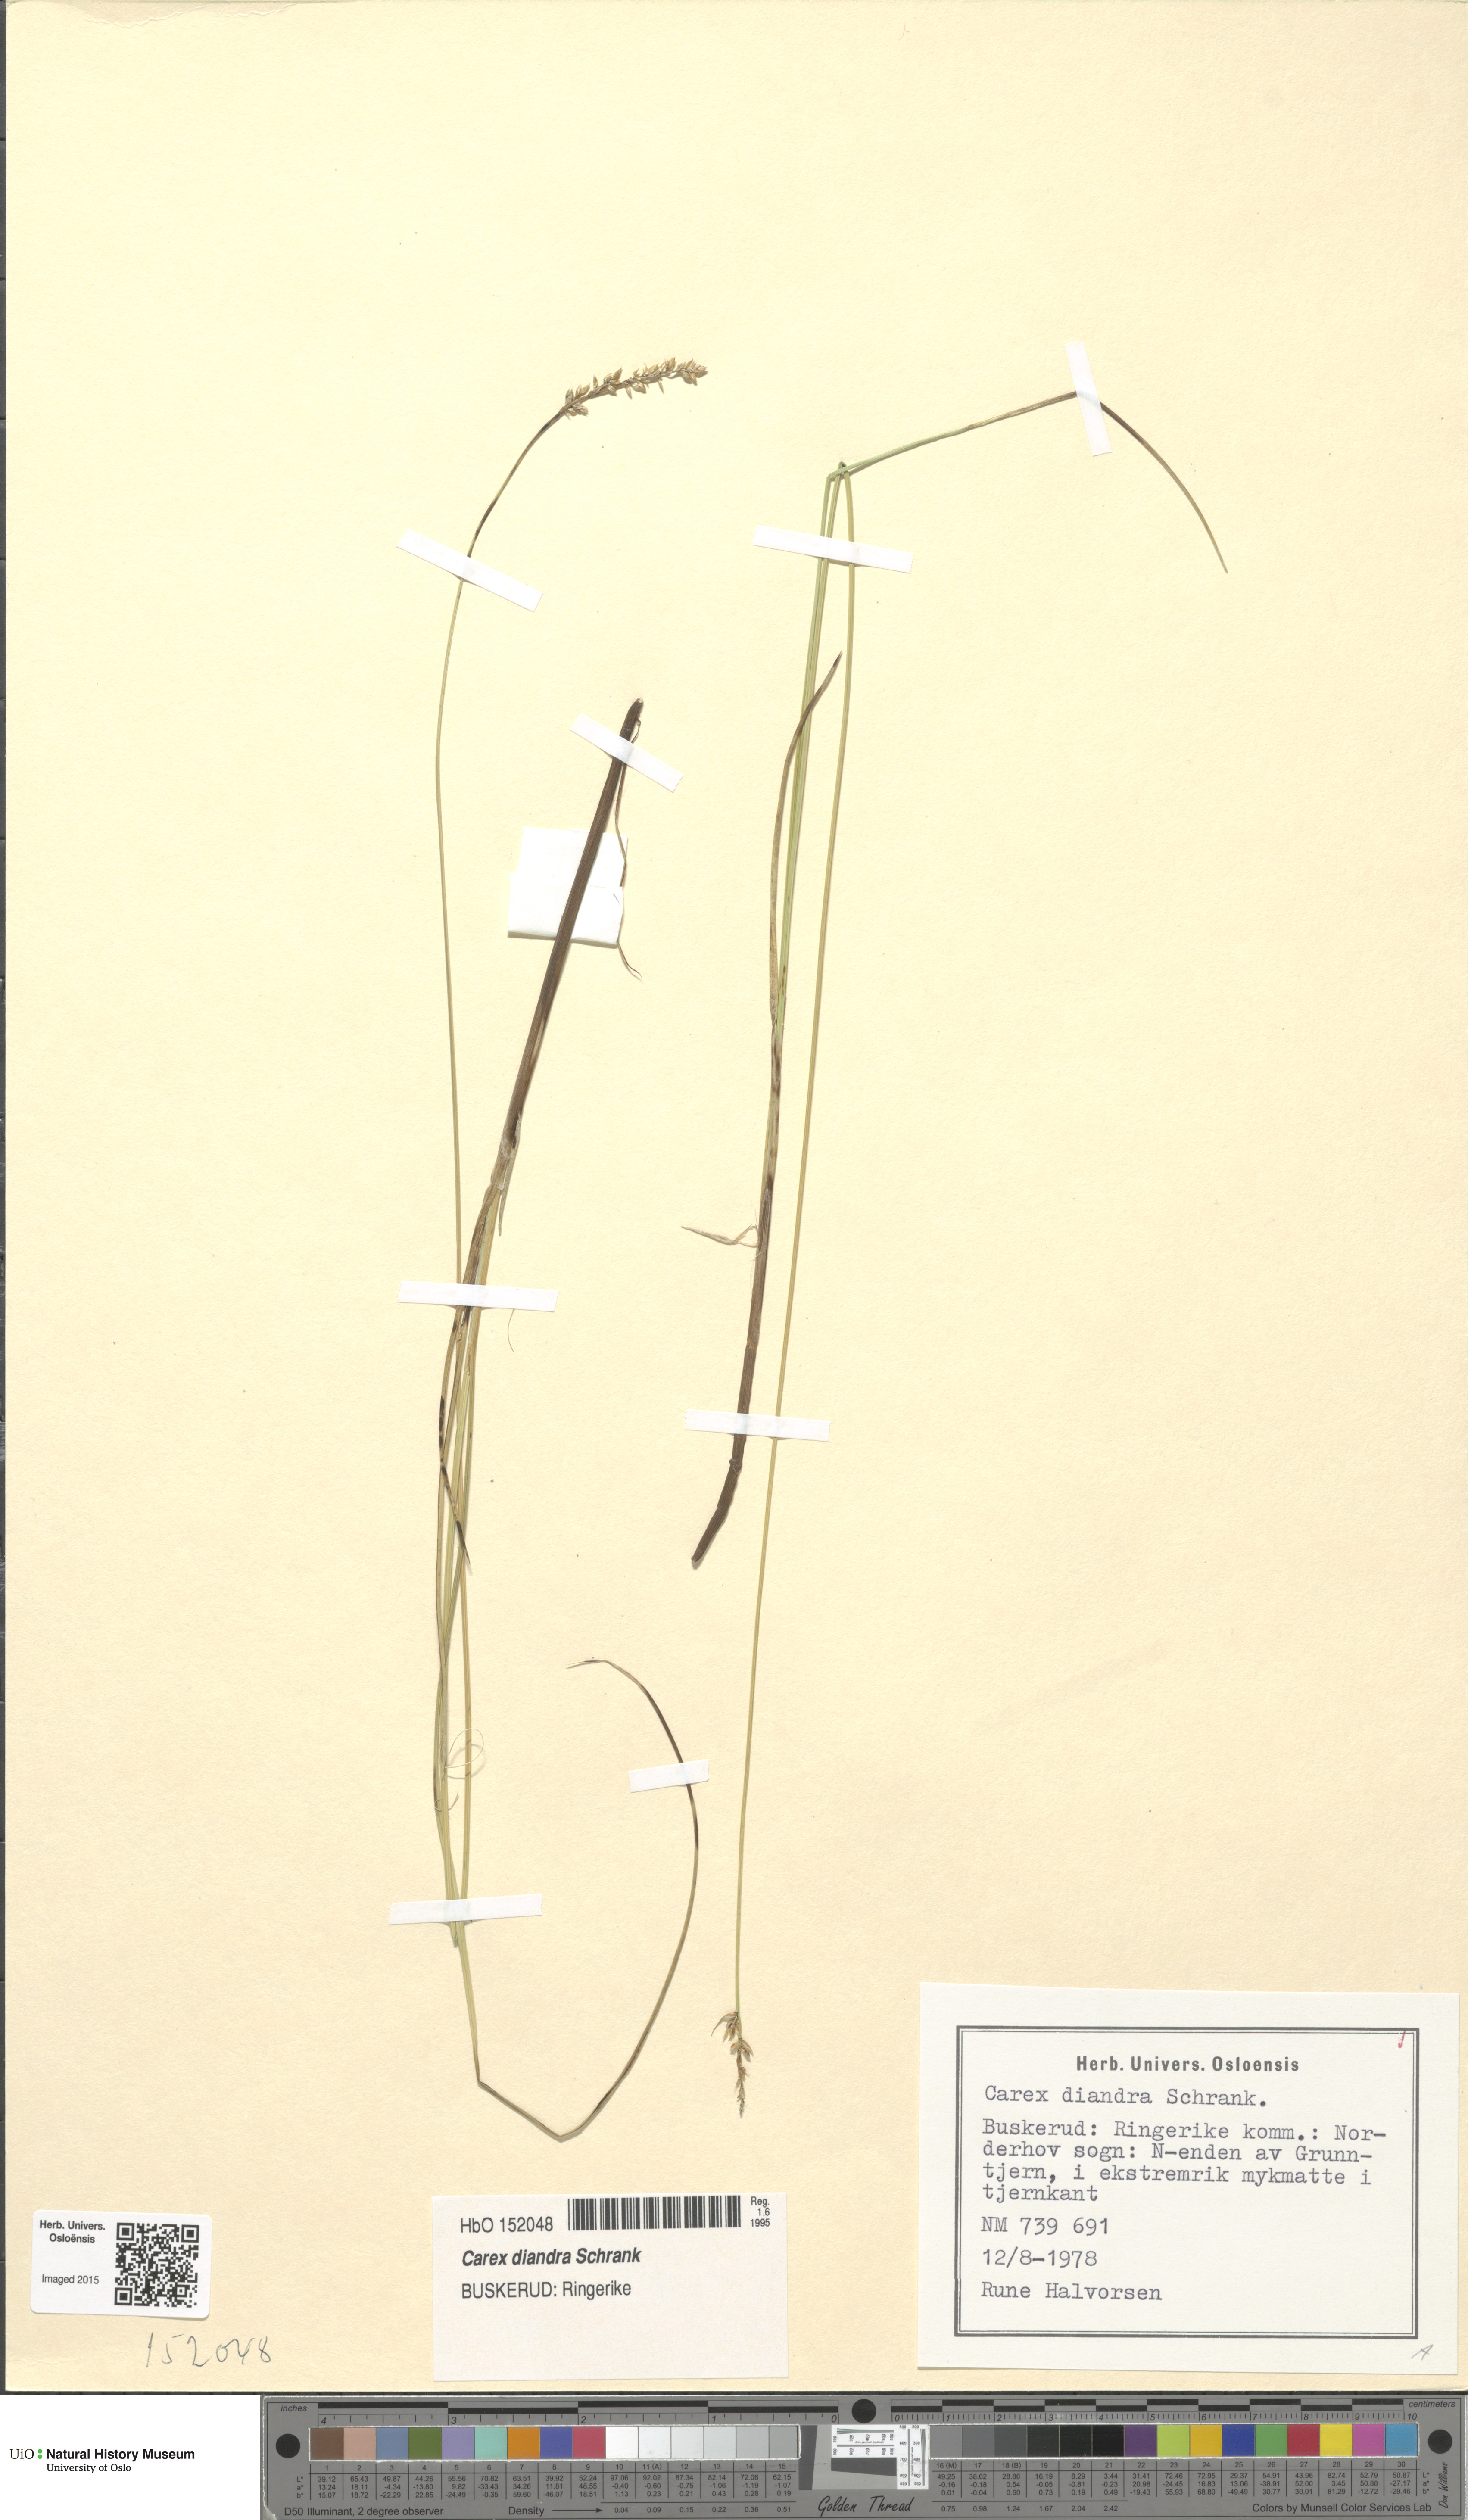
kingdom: Plantae
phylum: Tracheophyta
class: Liliopsida
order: Poales
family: Cyperaceae
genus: Carex
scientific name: Carex diandra
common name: Lesser tussock-sedge
